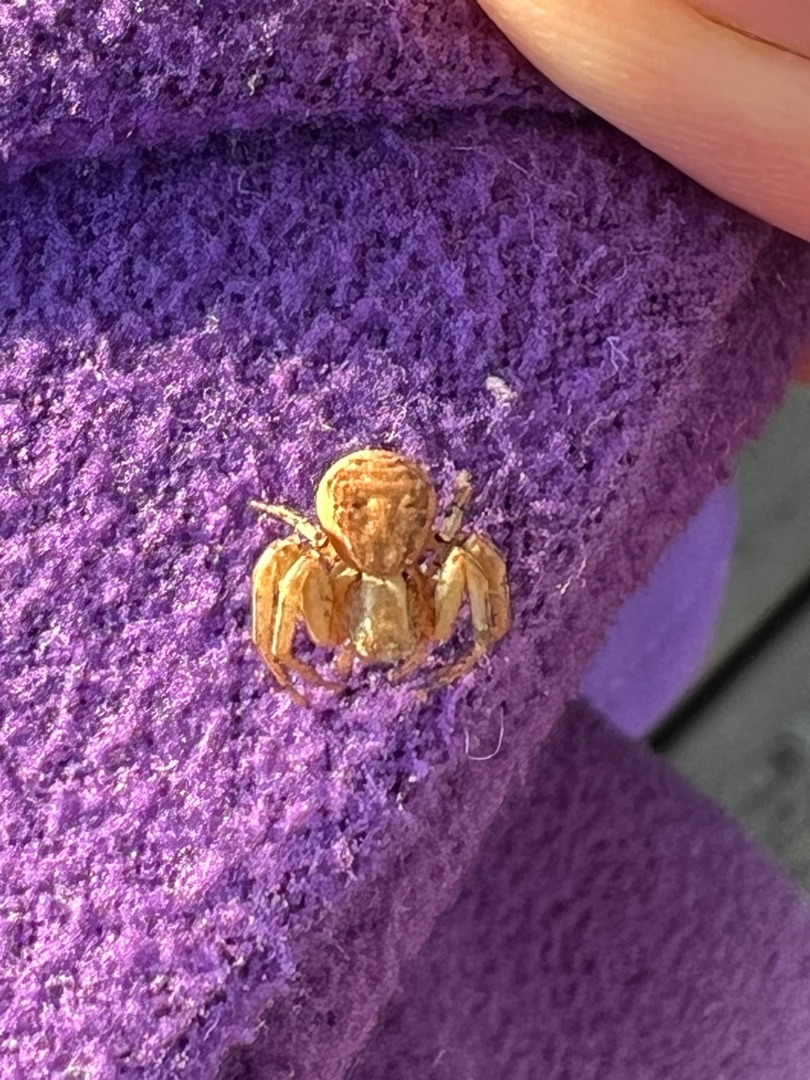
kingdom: Animalia
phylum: Arthropoda
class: Arachnida
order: Araneae
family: Thomisidae
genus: Xysticus
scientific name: Xysticus
